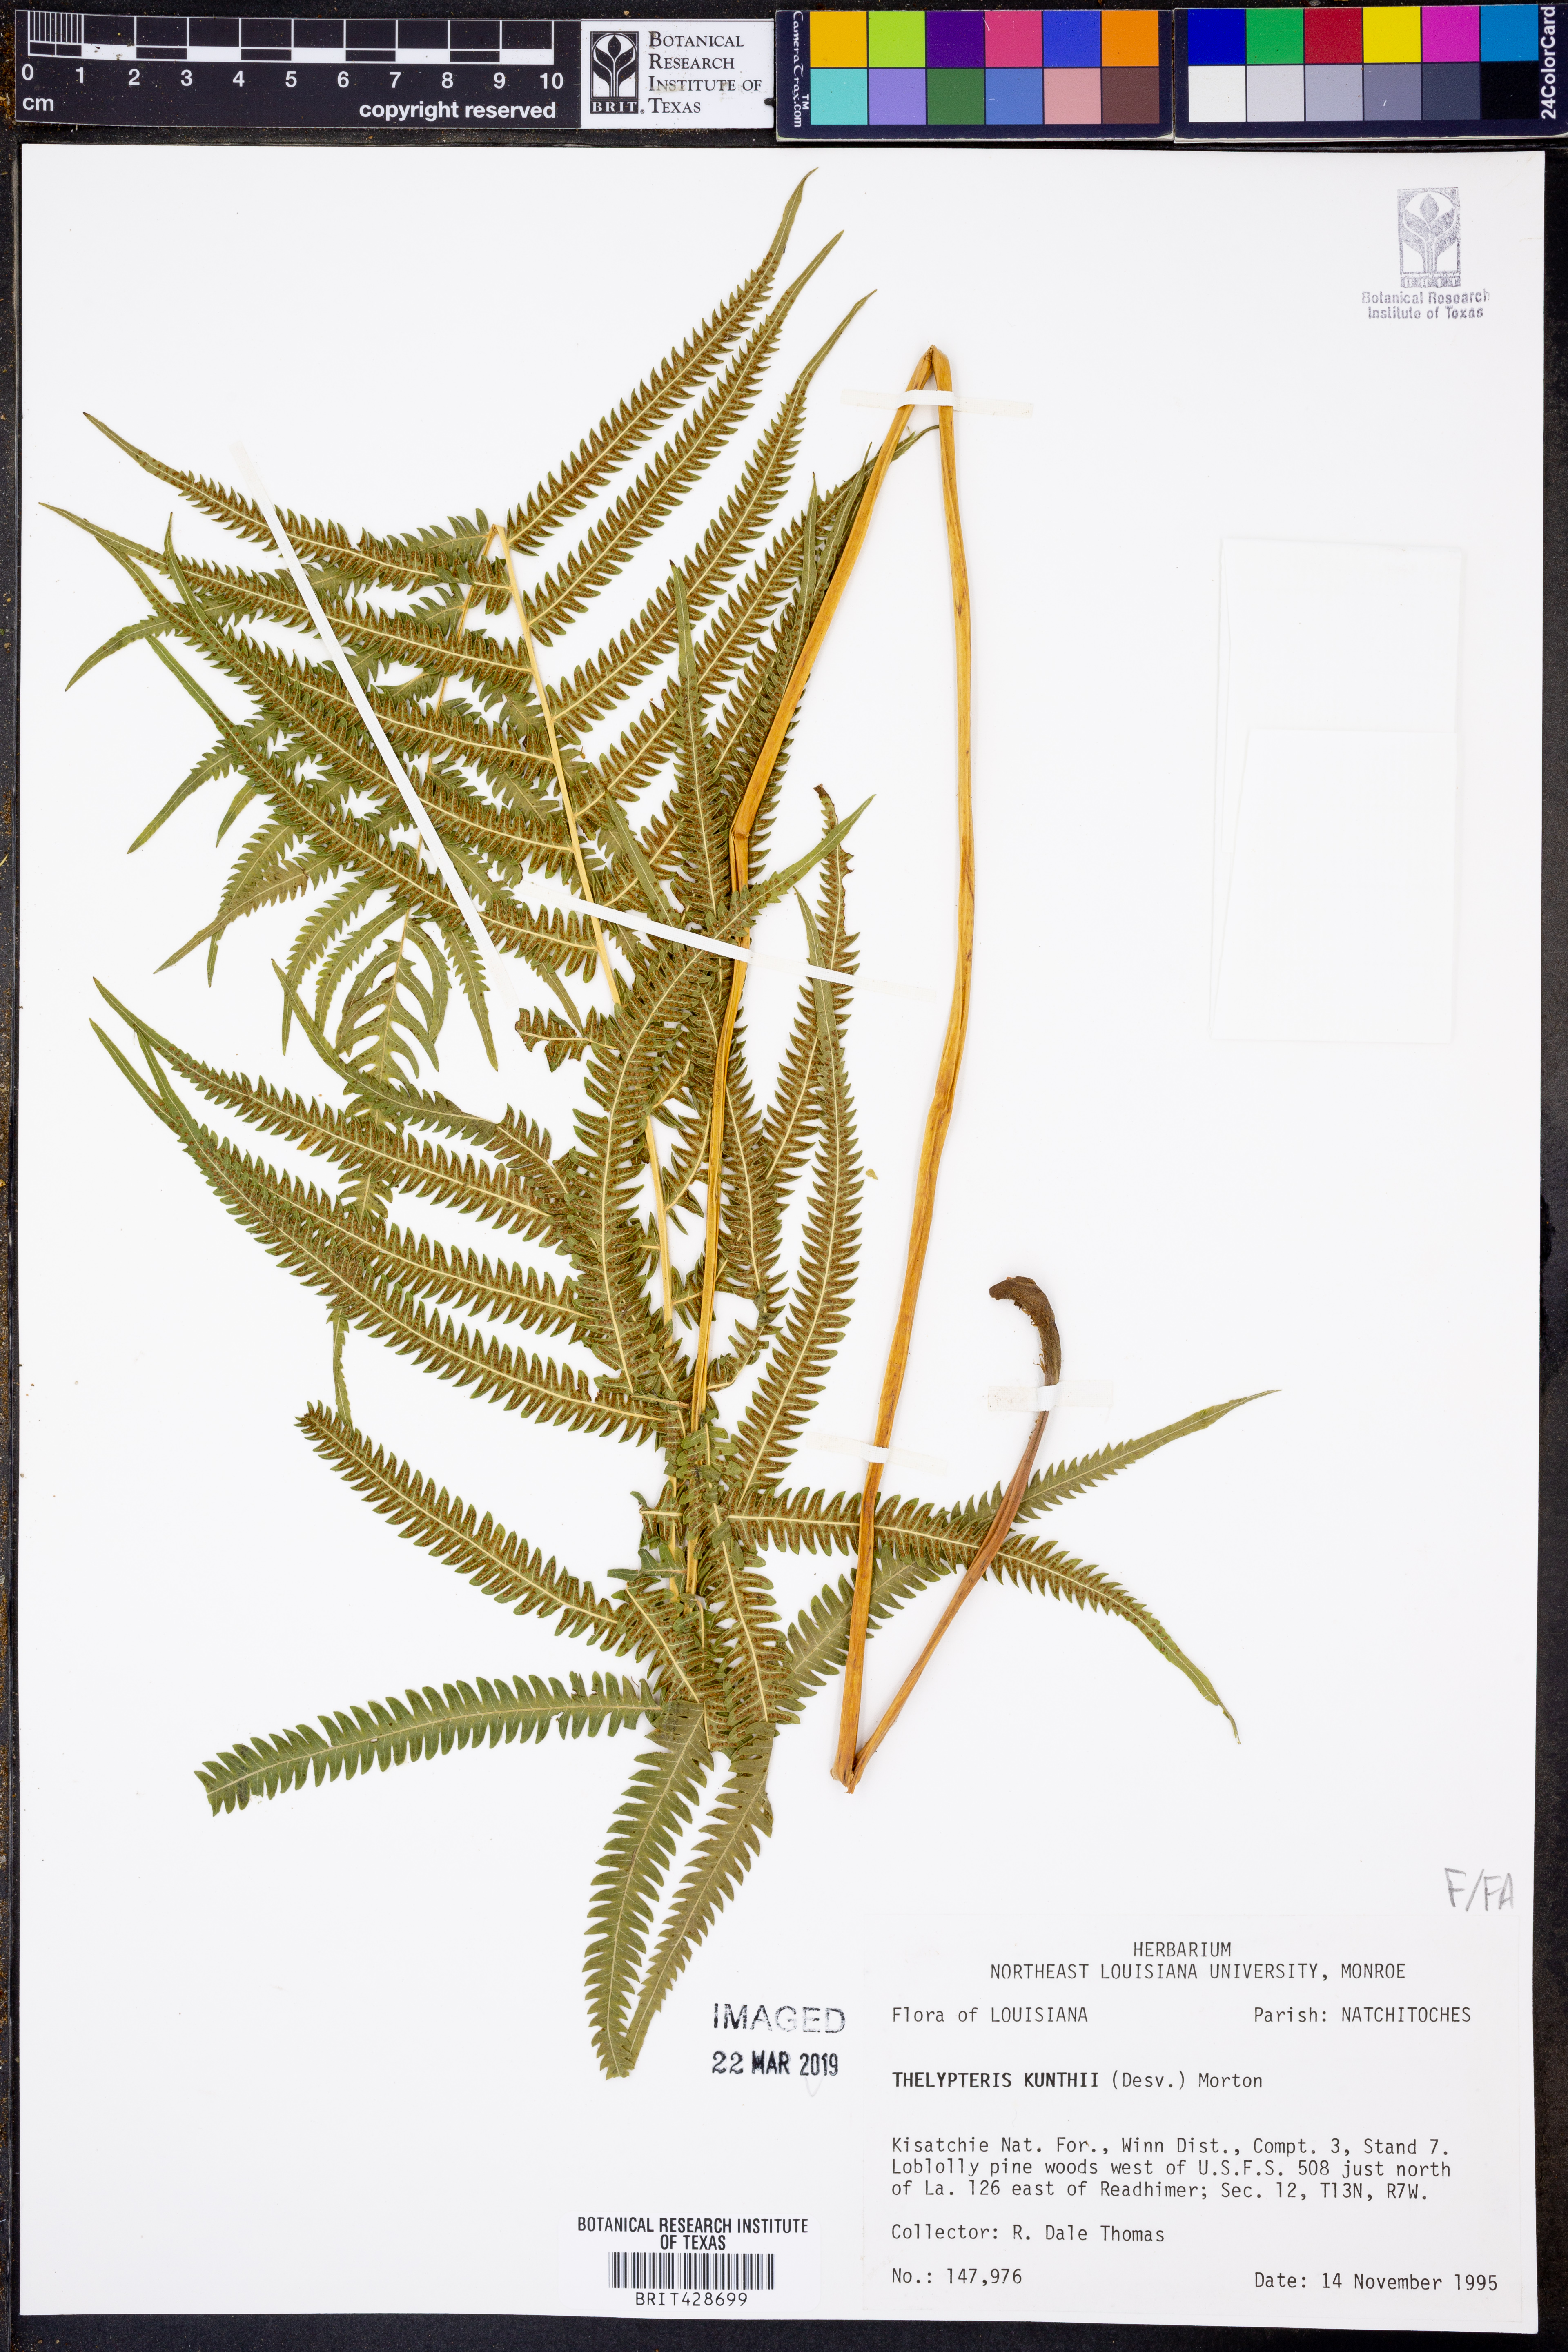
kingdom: Plantae
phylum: Tracheophyta
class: Polypodiopsida
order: Polypodiales
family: Thelypteridaceae
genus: Pelazoneuron
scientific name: Pelazoneuron kunthii
